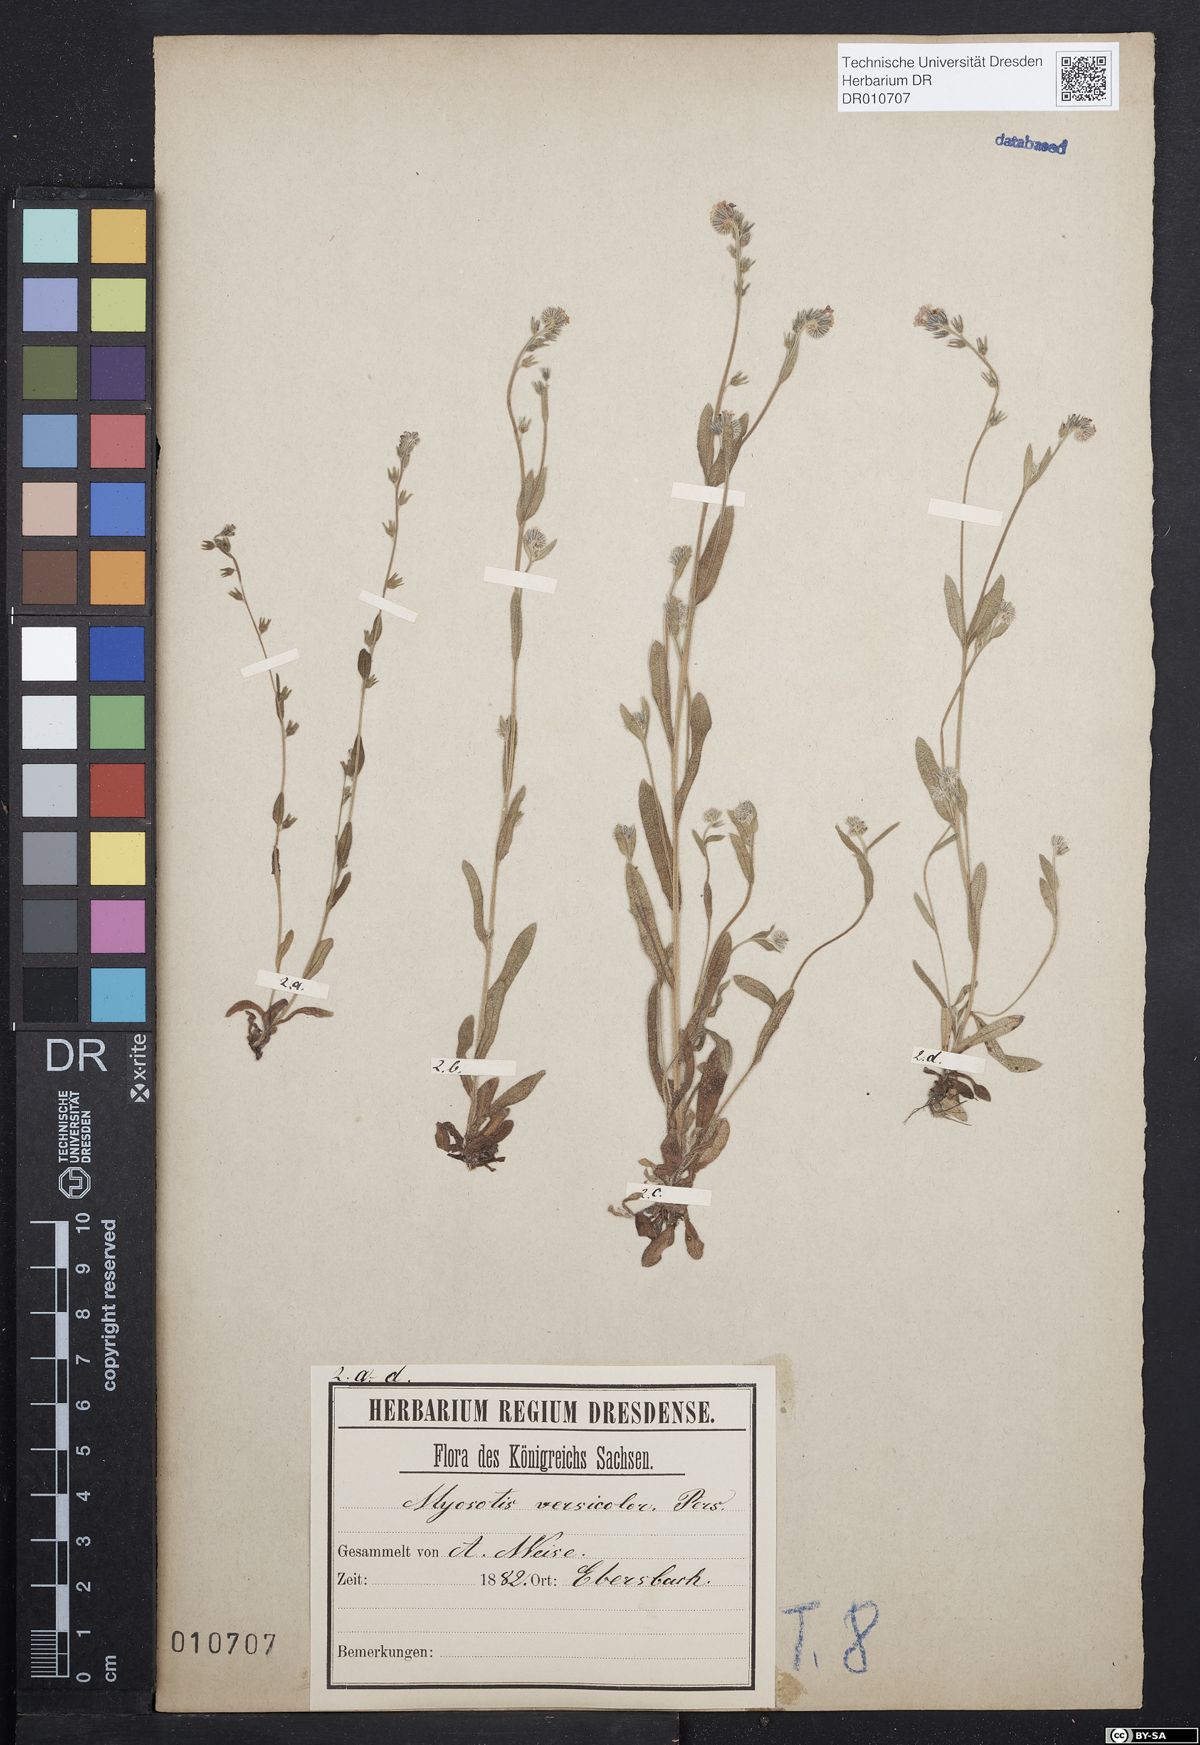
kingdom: Plantae
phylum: Tracheophyta
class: Magnoliopsida
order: Boraginales
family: Boraginaceae
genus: Myosotis
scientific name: Myosotis discolor
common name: Changing forget-me-not
